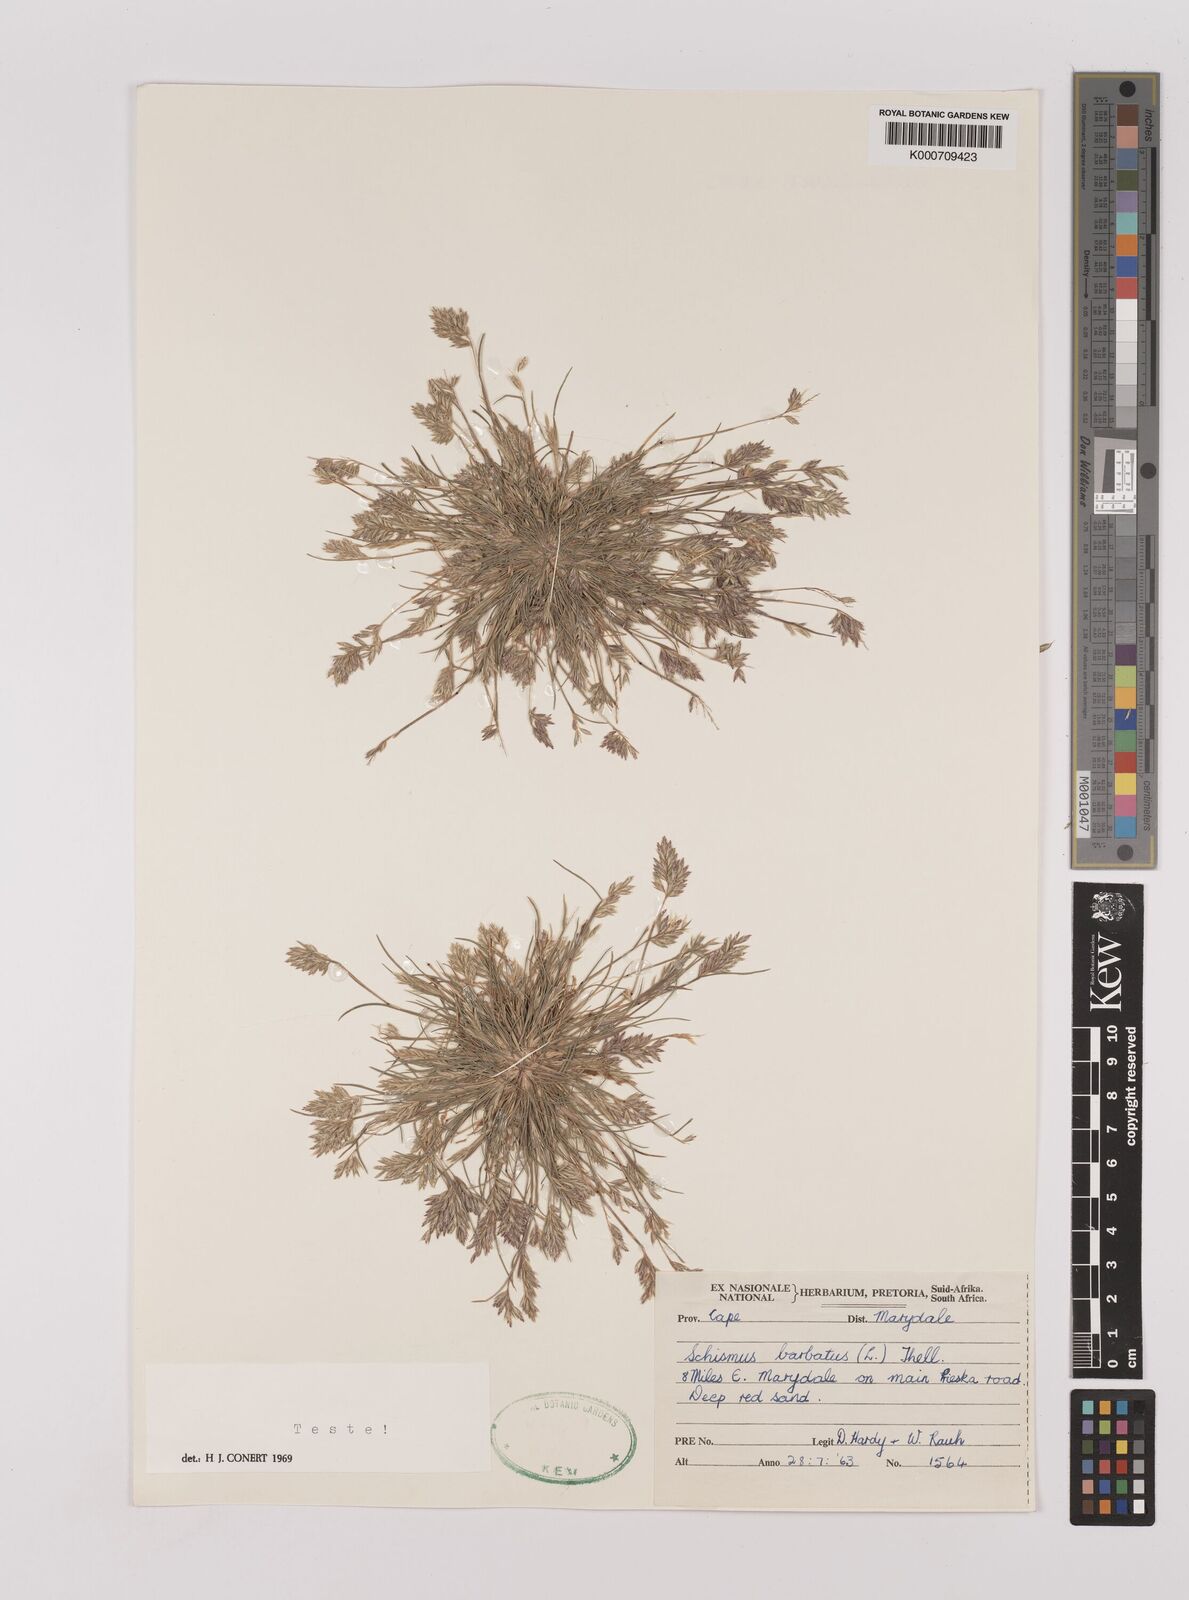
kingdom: Plantae
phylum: Tracheophyta
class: Liliopsida
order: Poales
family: Poaceae
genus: Schismus
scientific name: Schismus barbatus
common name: Kelch-grass
